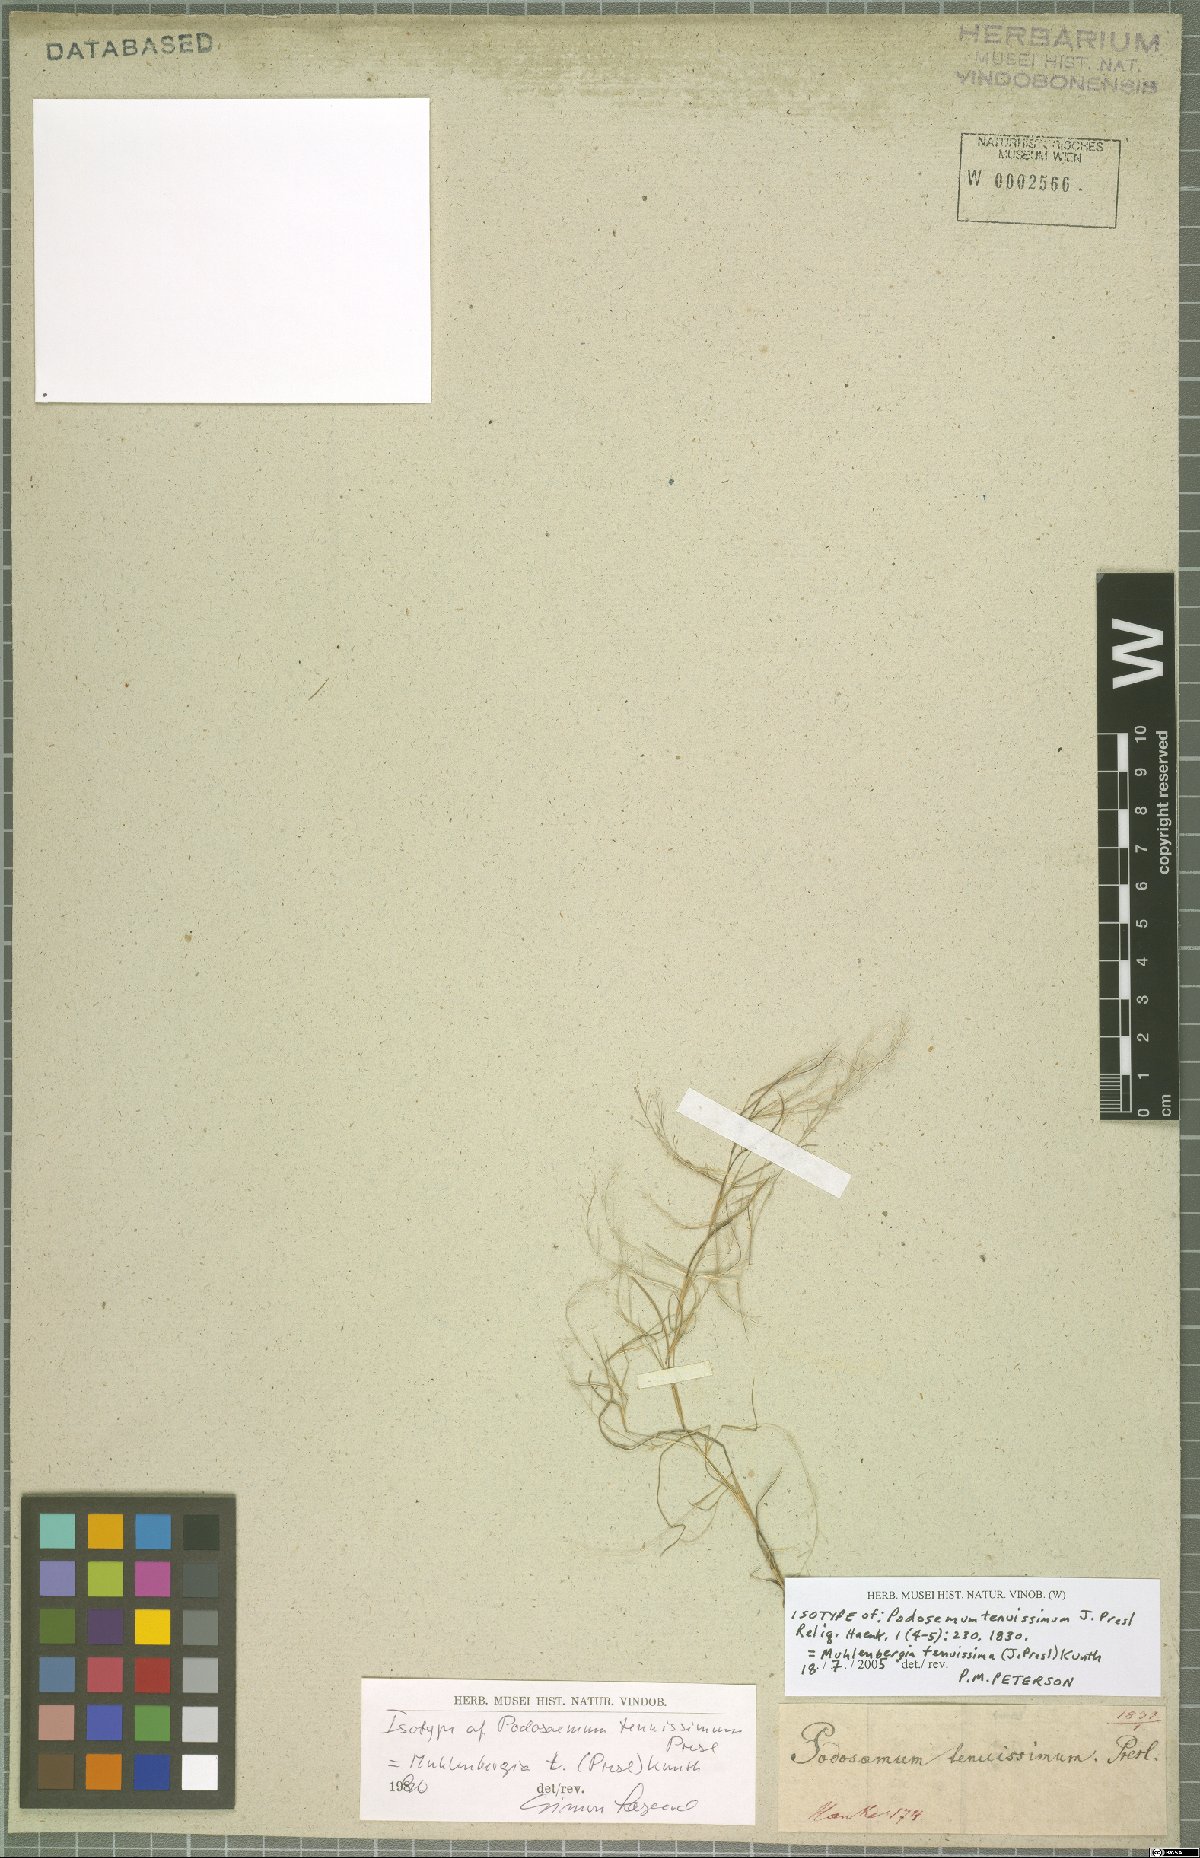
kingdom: Plantae
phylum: Tracheophyta
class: Liliopsida
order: Poales
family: Poaceae
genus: Muhlenbergia
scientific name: Muhlenbergia tenuissima
